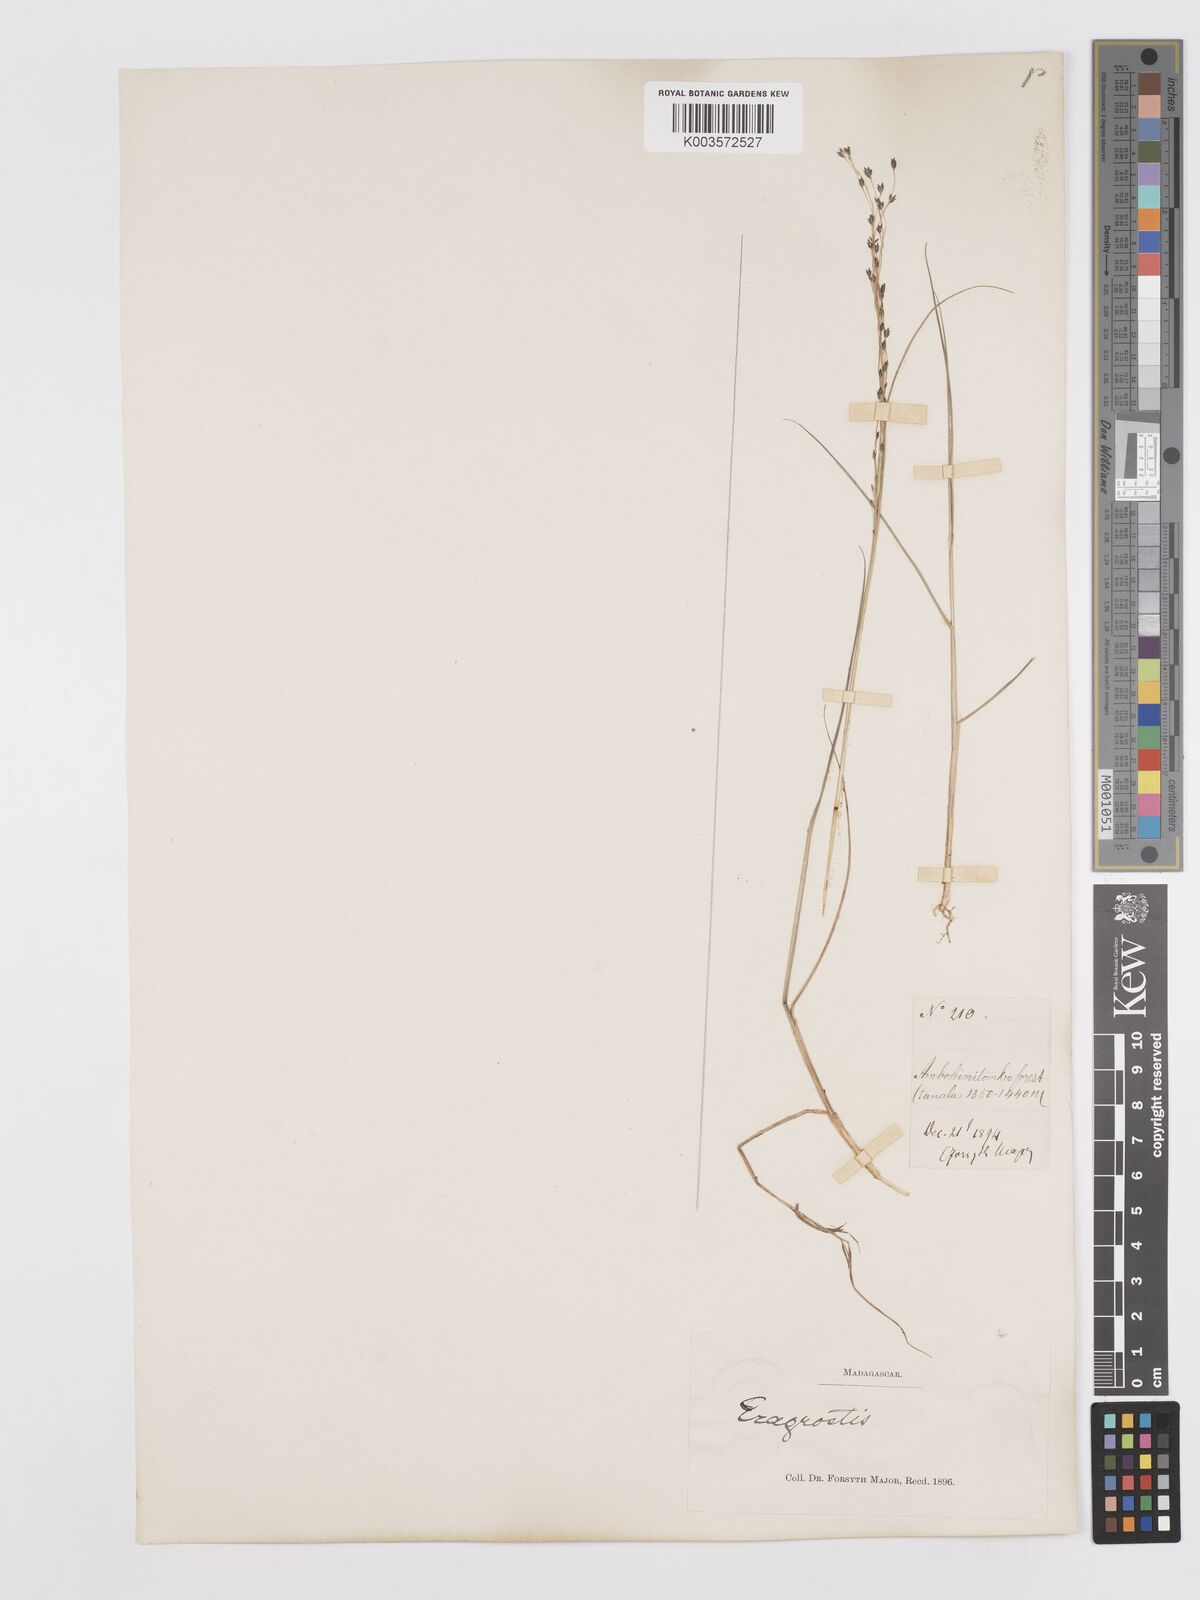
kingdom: Plantae
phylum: Tracheophyta
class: Liliopsida
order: Poales
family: Poaceae
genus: Eragrostis
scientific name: Eragrostis hildebrandtii
